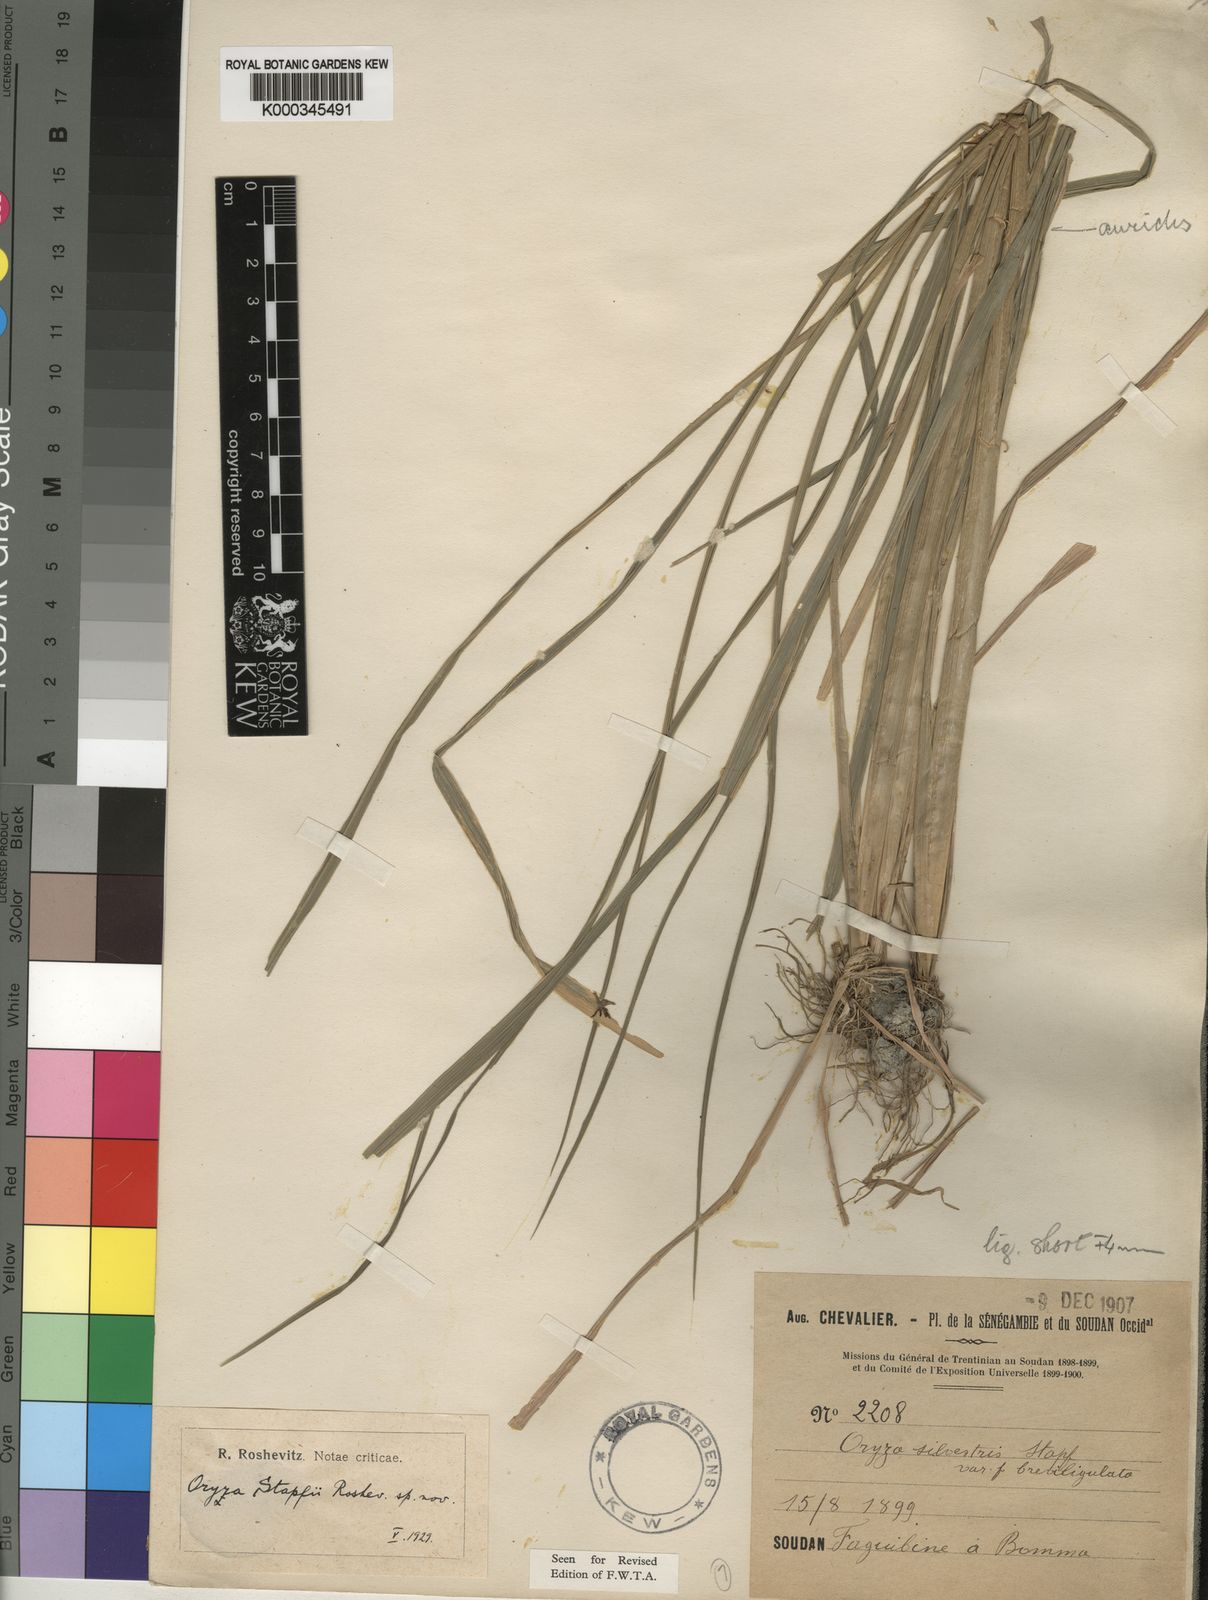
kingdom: Plantae
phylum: Tracheophyta
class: Liliopsida
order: Poales
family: Poaceae
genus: Oryza
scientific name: Oryza barthii
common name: Wild rice
